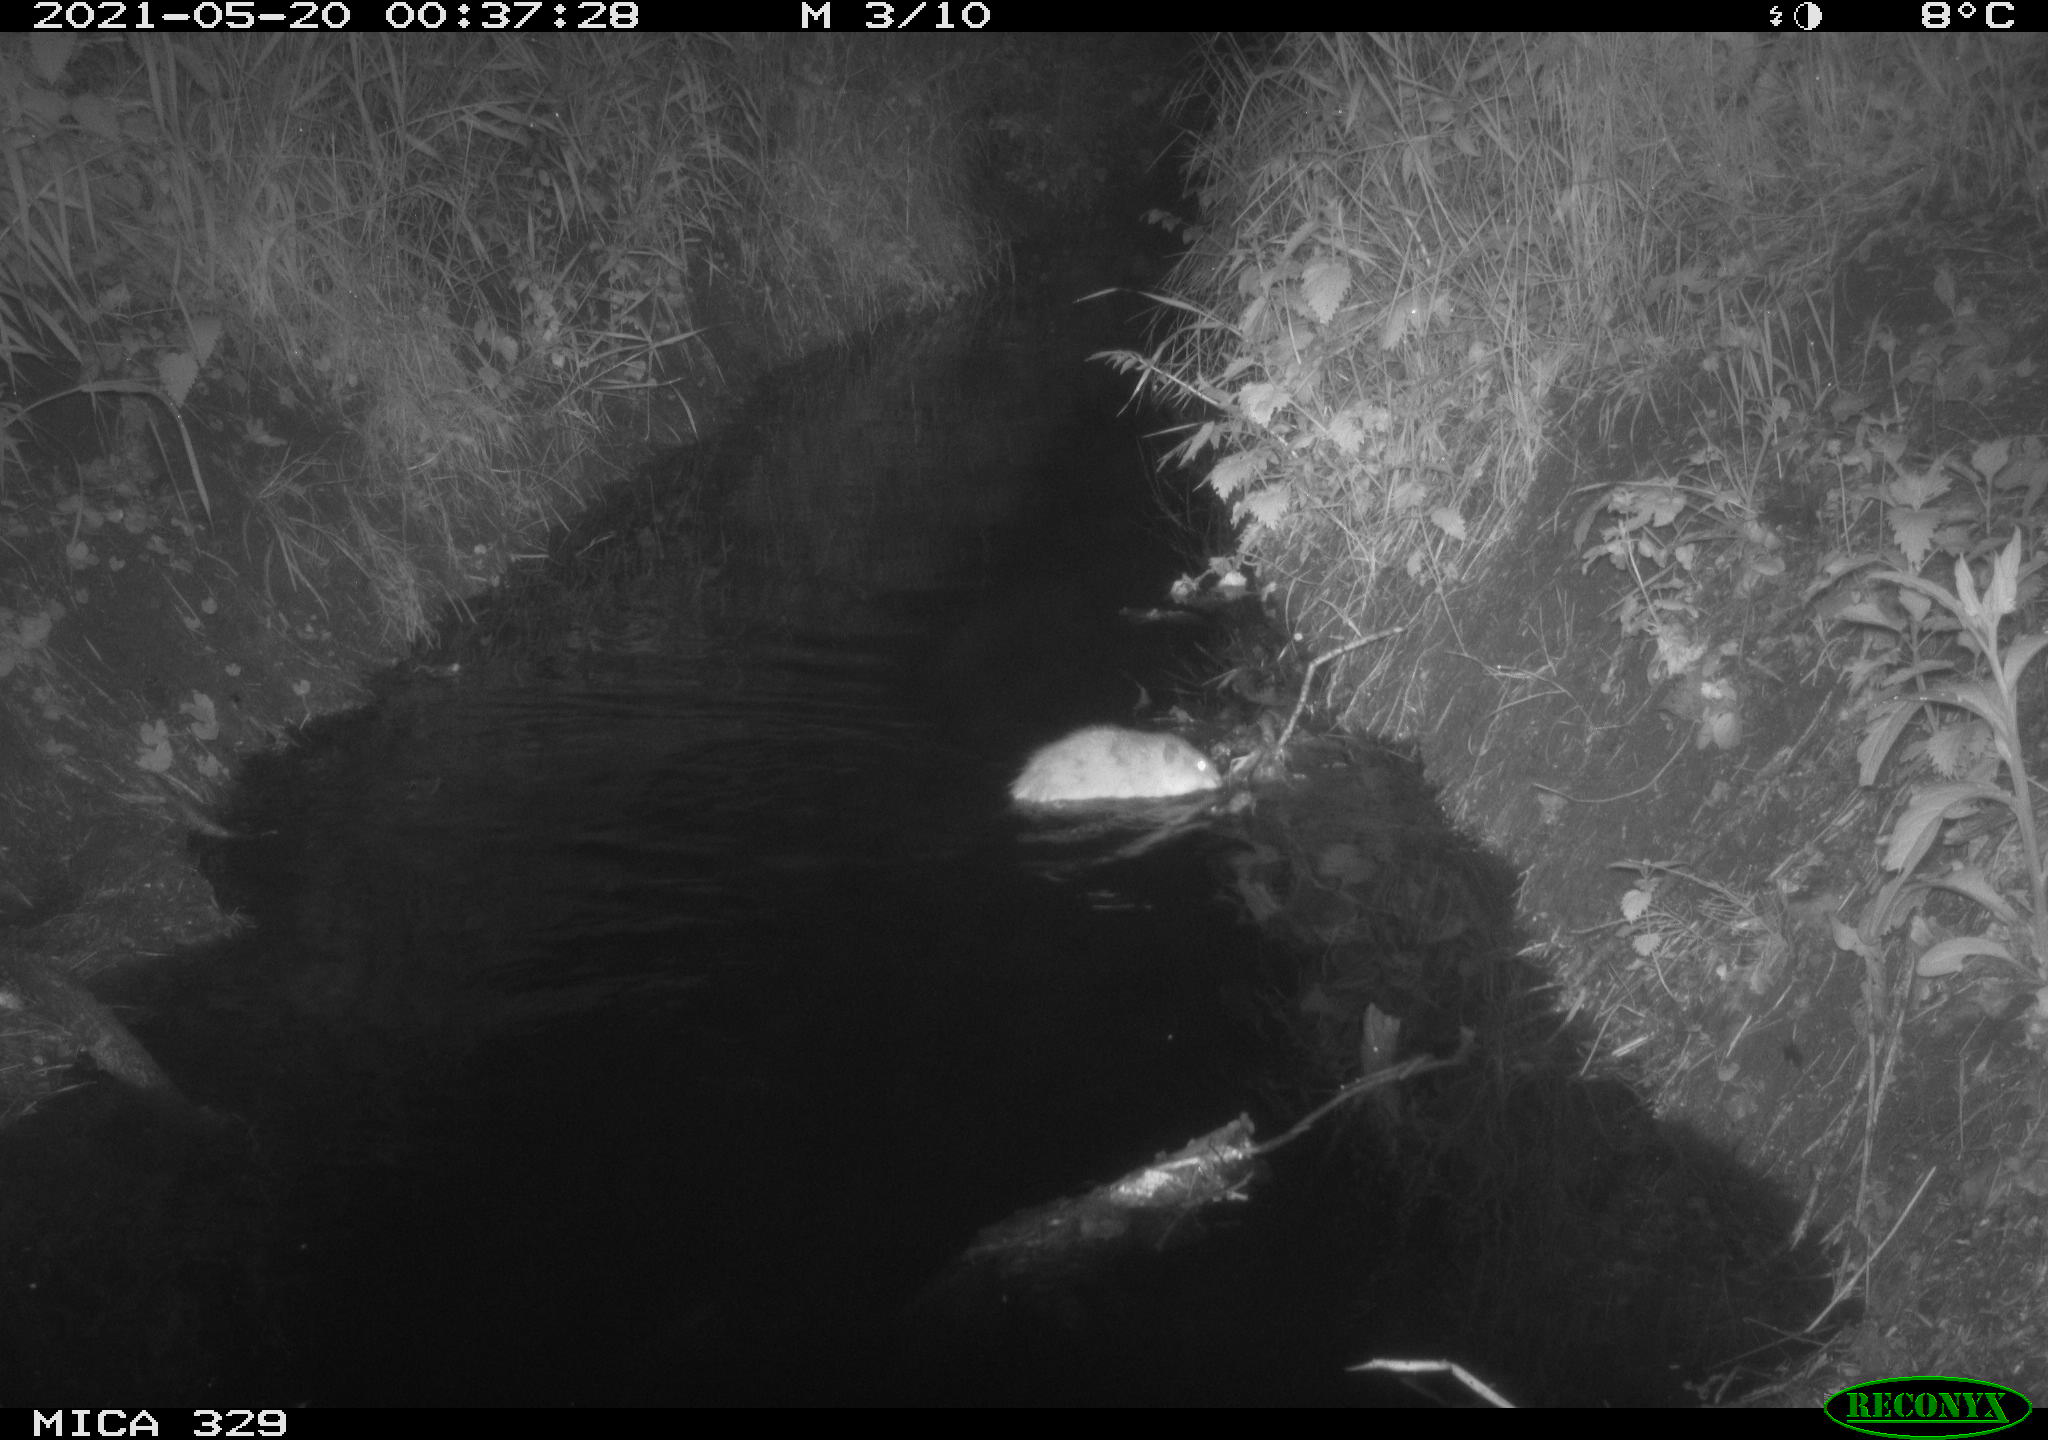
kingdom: Animalia
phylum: Chordata
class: Mammalia
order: Rodentia
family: Cricetidae
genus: Ondatra
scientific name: Ondatra zibethicus
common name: Muskrat
